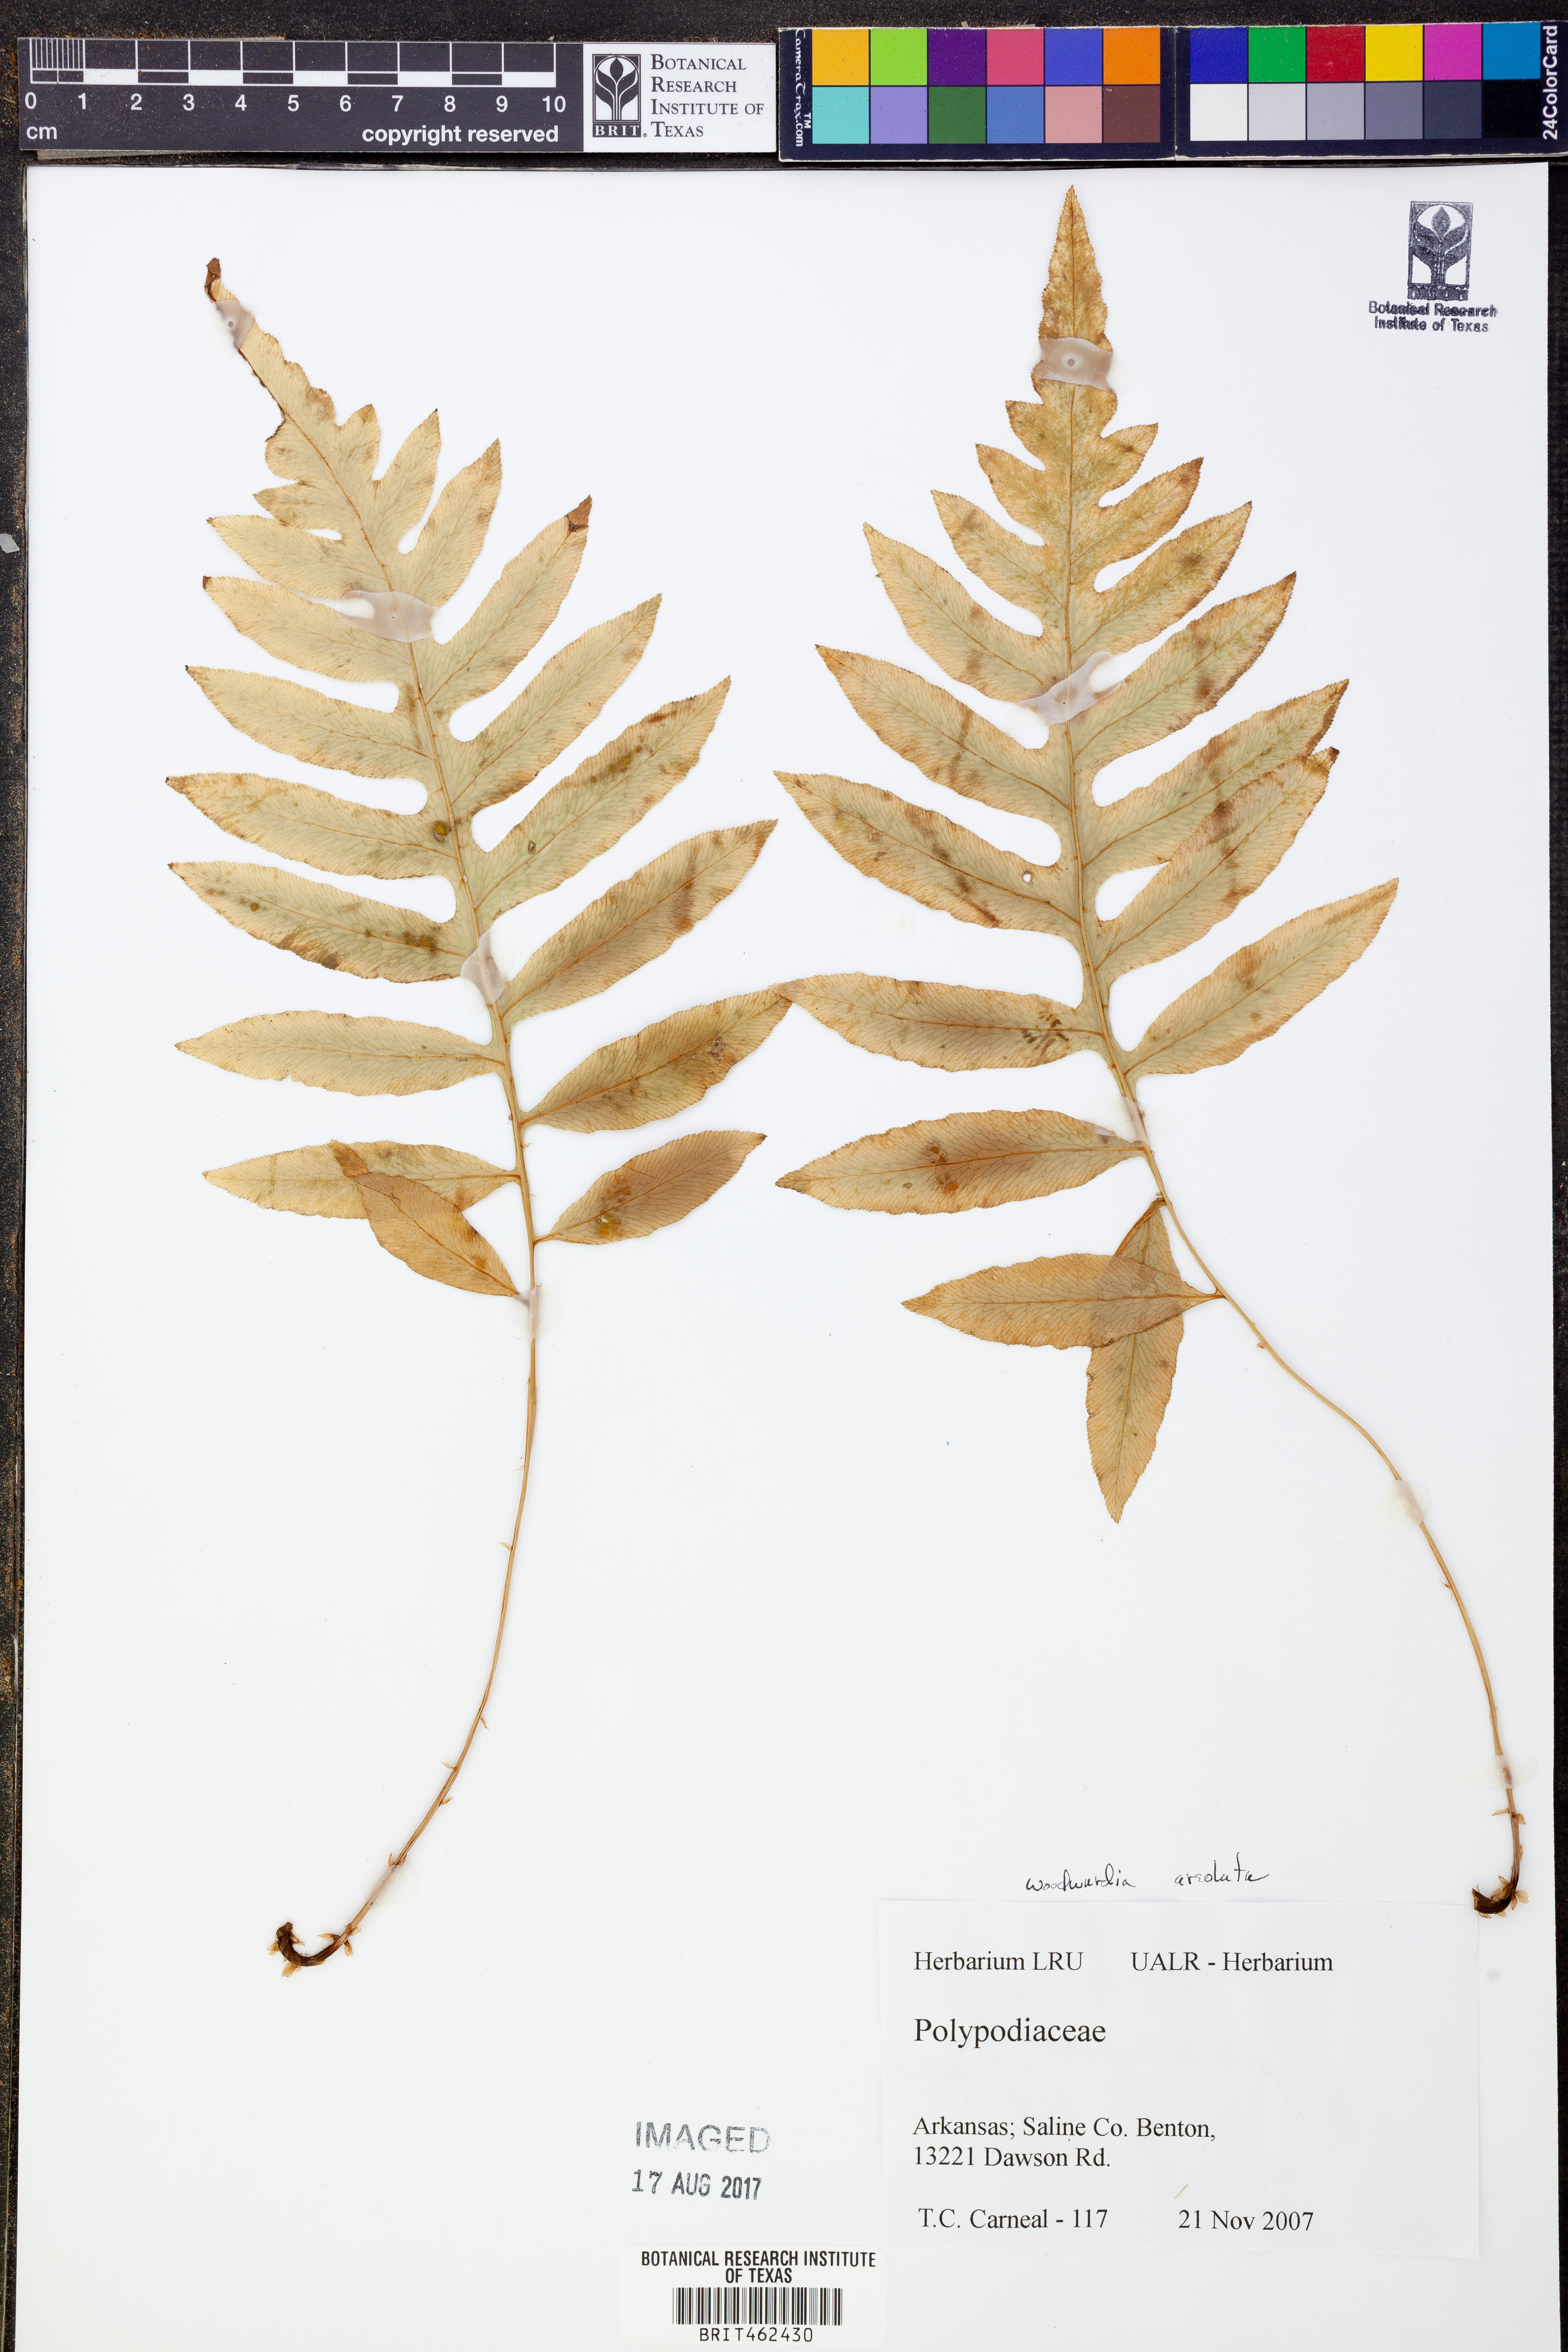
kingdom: Plantae
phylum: Tracheophyta
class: Polypodiopsida
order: Polypodiales
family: Blechnaceae
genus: Lorinseria
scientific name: Lorinseria areolata
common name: Dwarf chain fern
